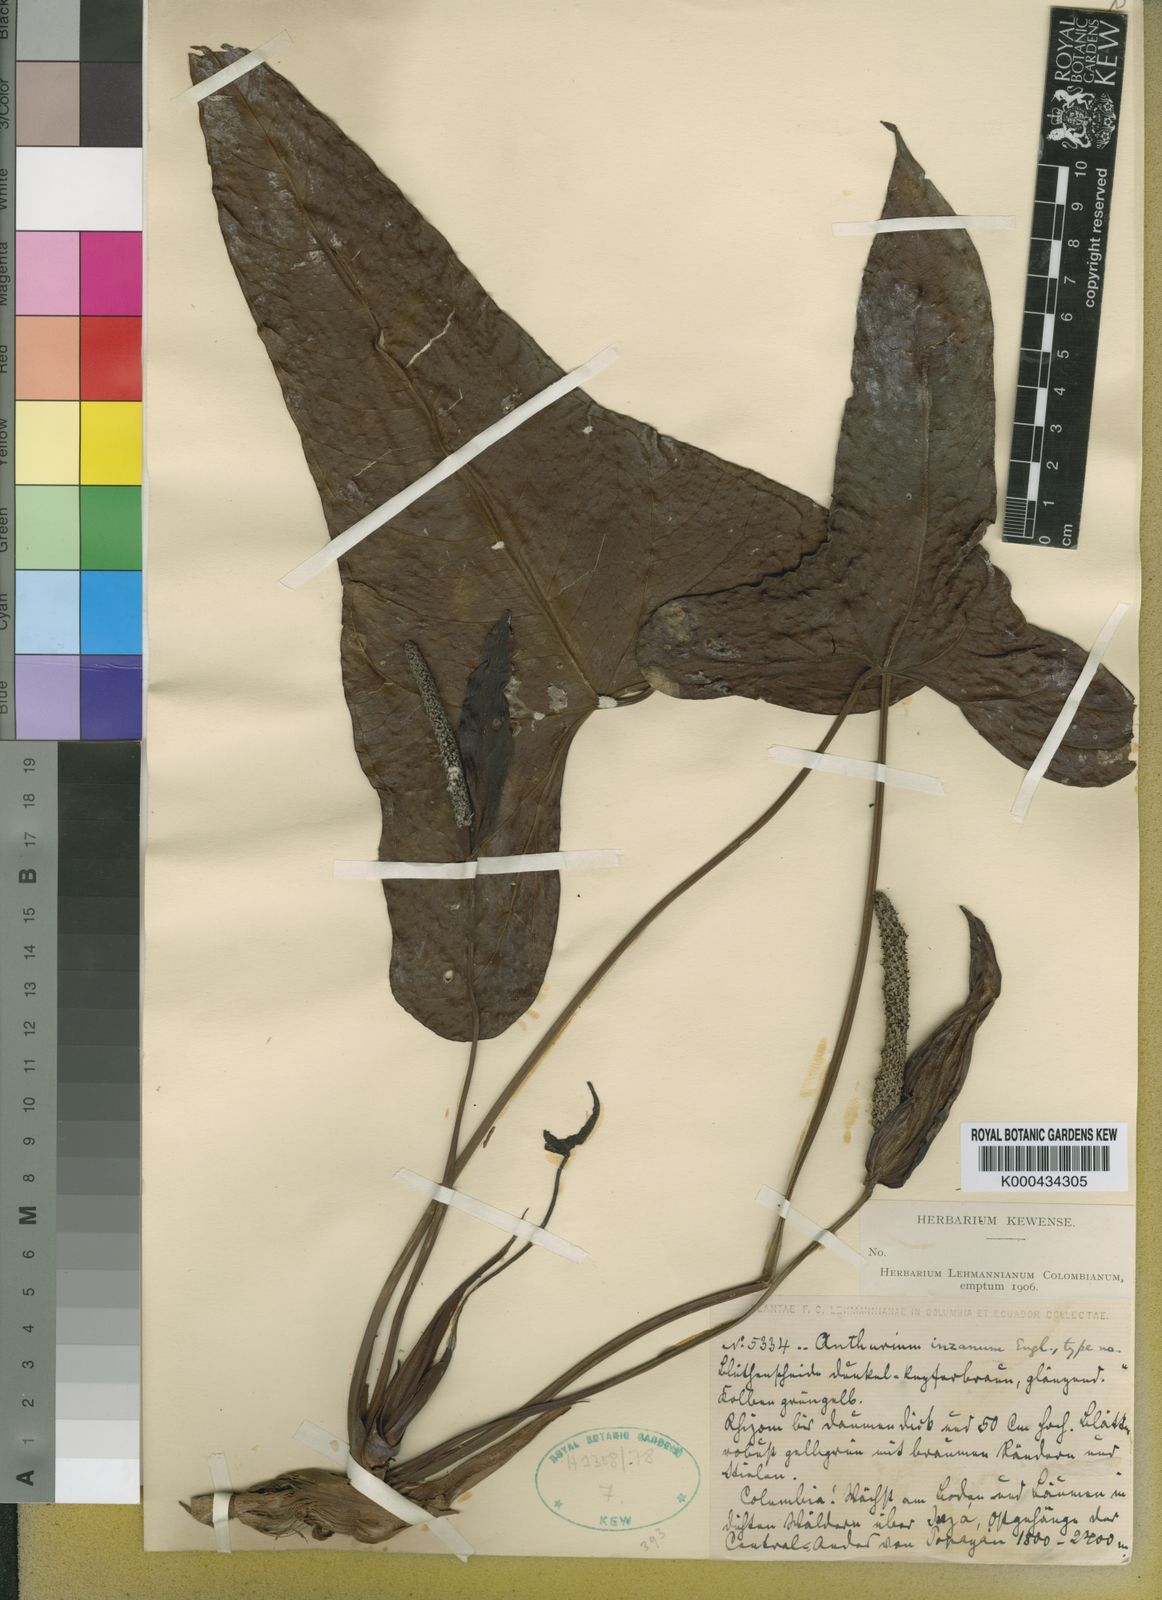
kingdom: Plantae
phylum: Tracheophyta
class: Liliopsida
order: Alismatales
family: Araceae
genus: Anthurium
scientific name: Anthurium inzanum
